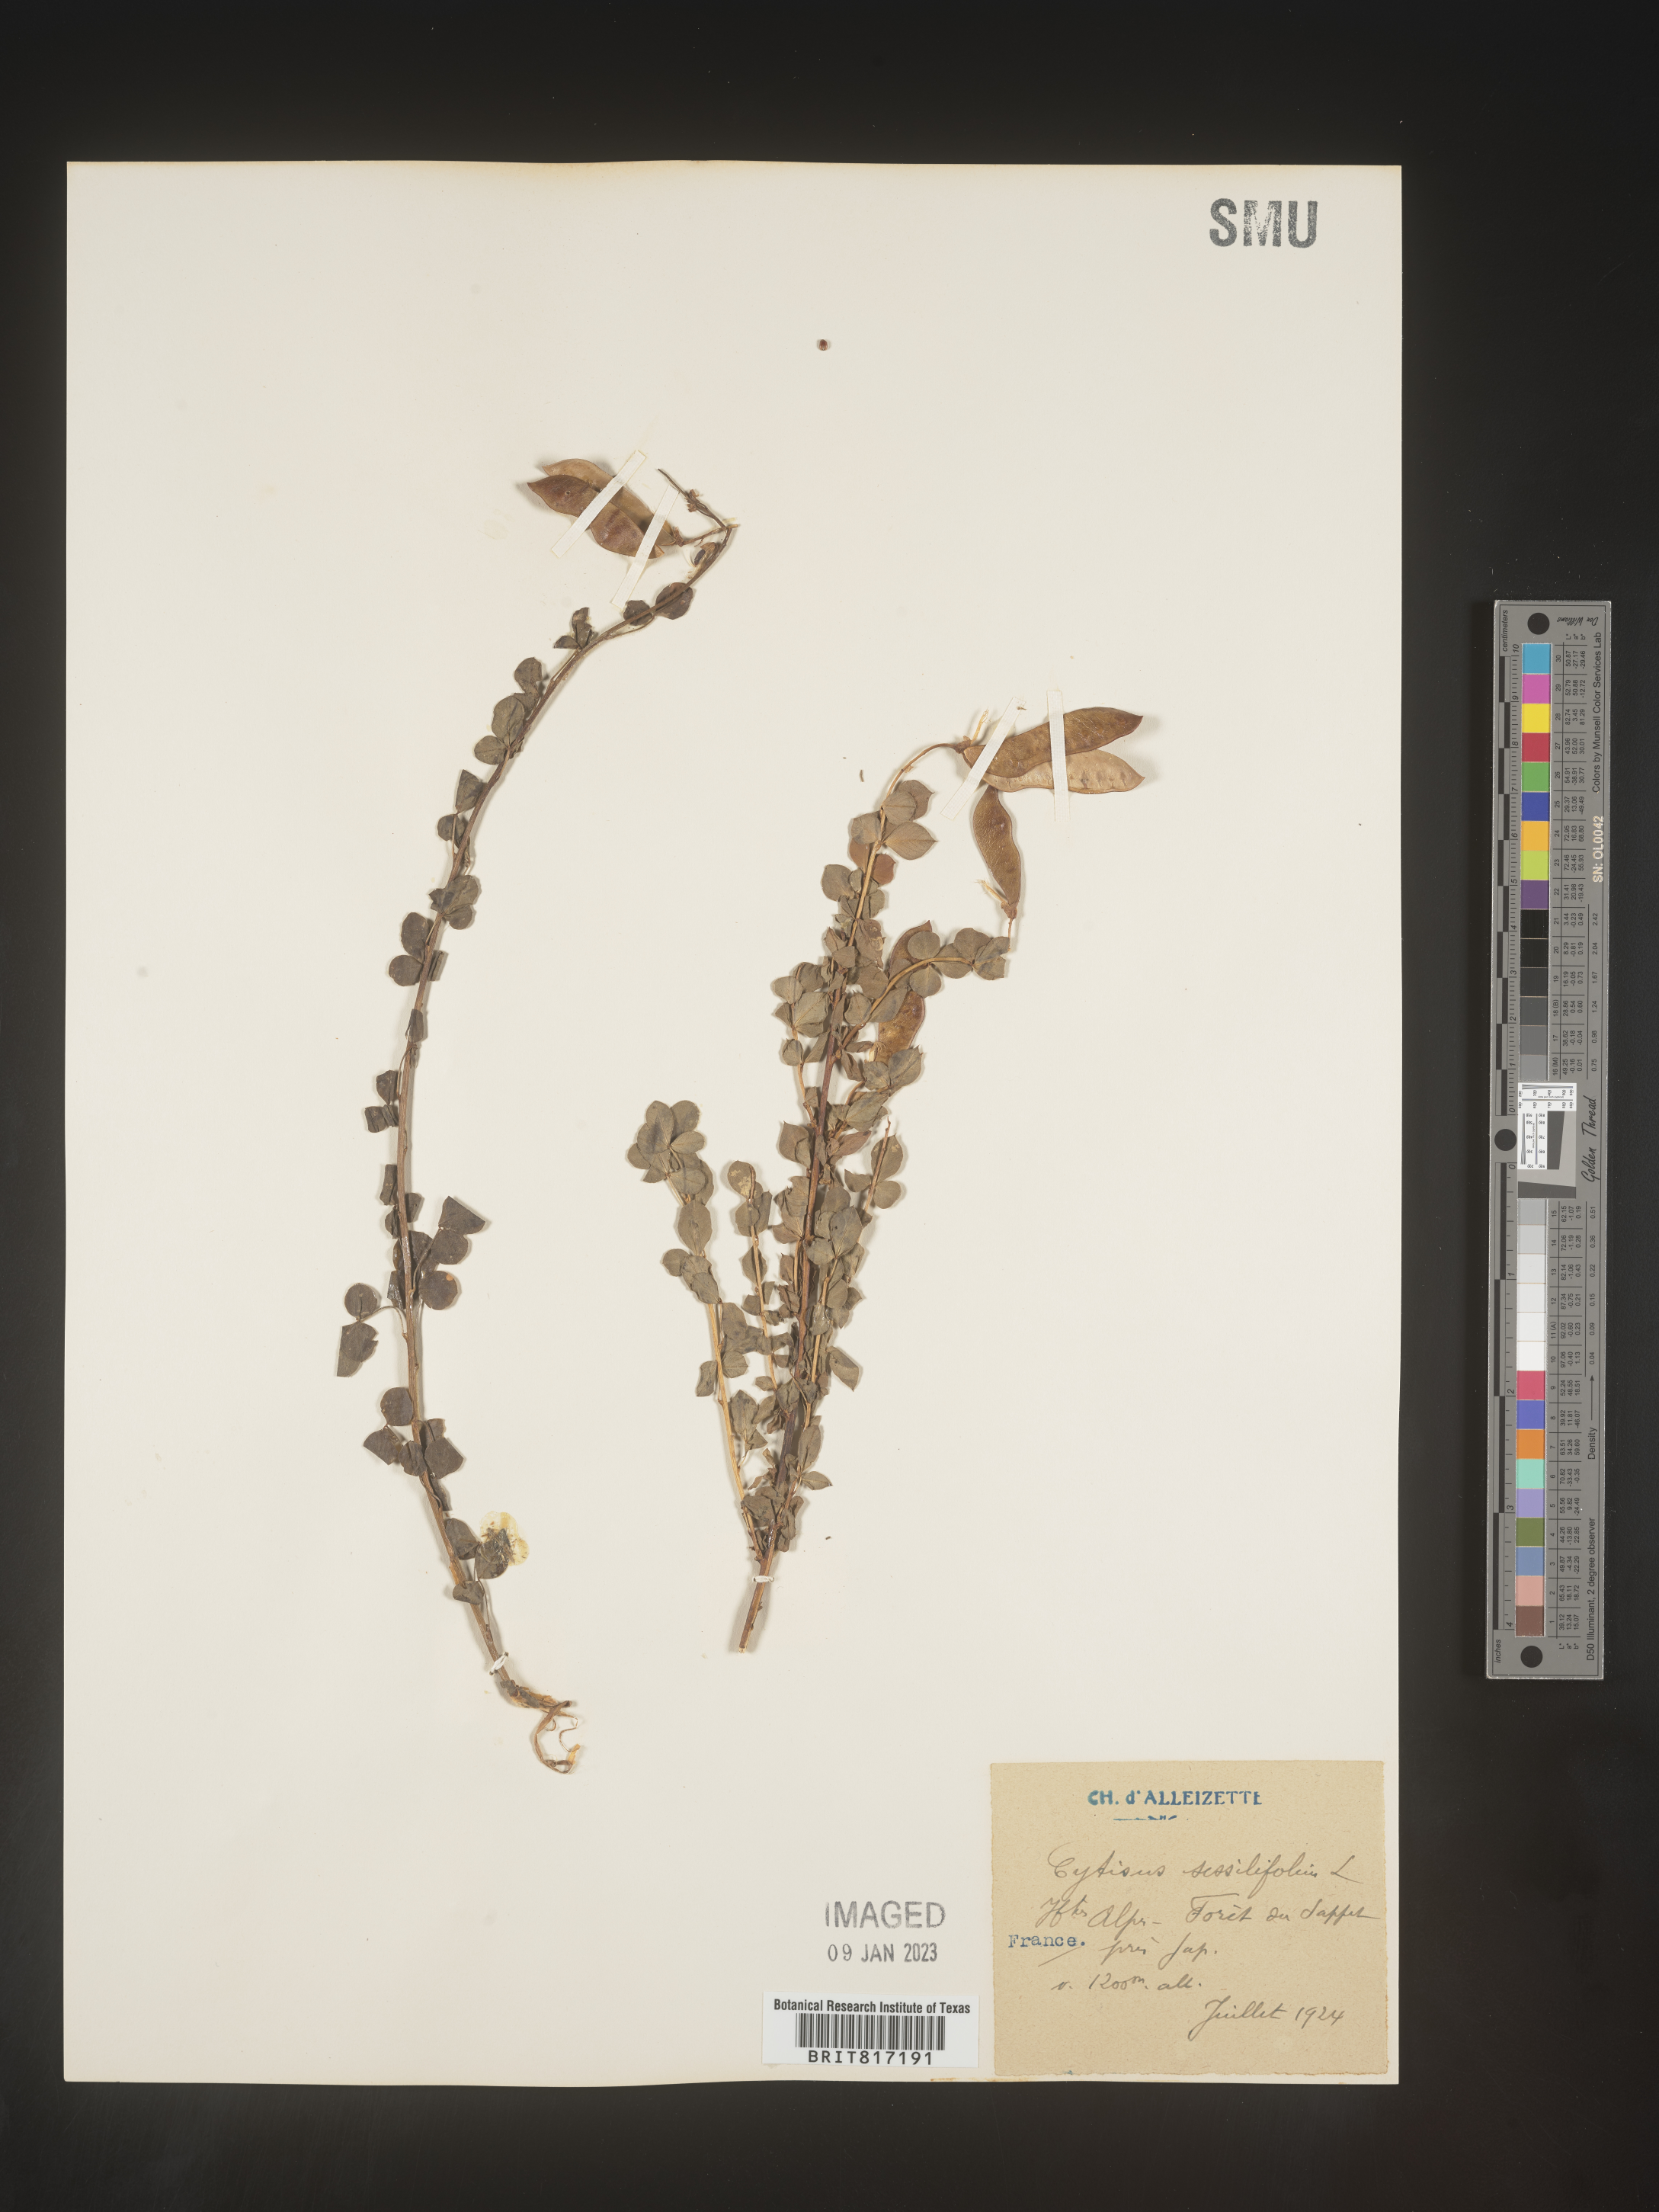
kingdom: Plantae
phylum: Tracheophyta
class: Magnoliopsida
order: Fabales
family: Fabaceae
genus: Cytisus
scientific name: Cytisus
